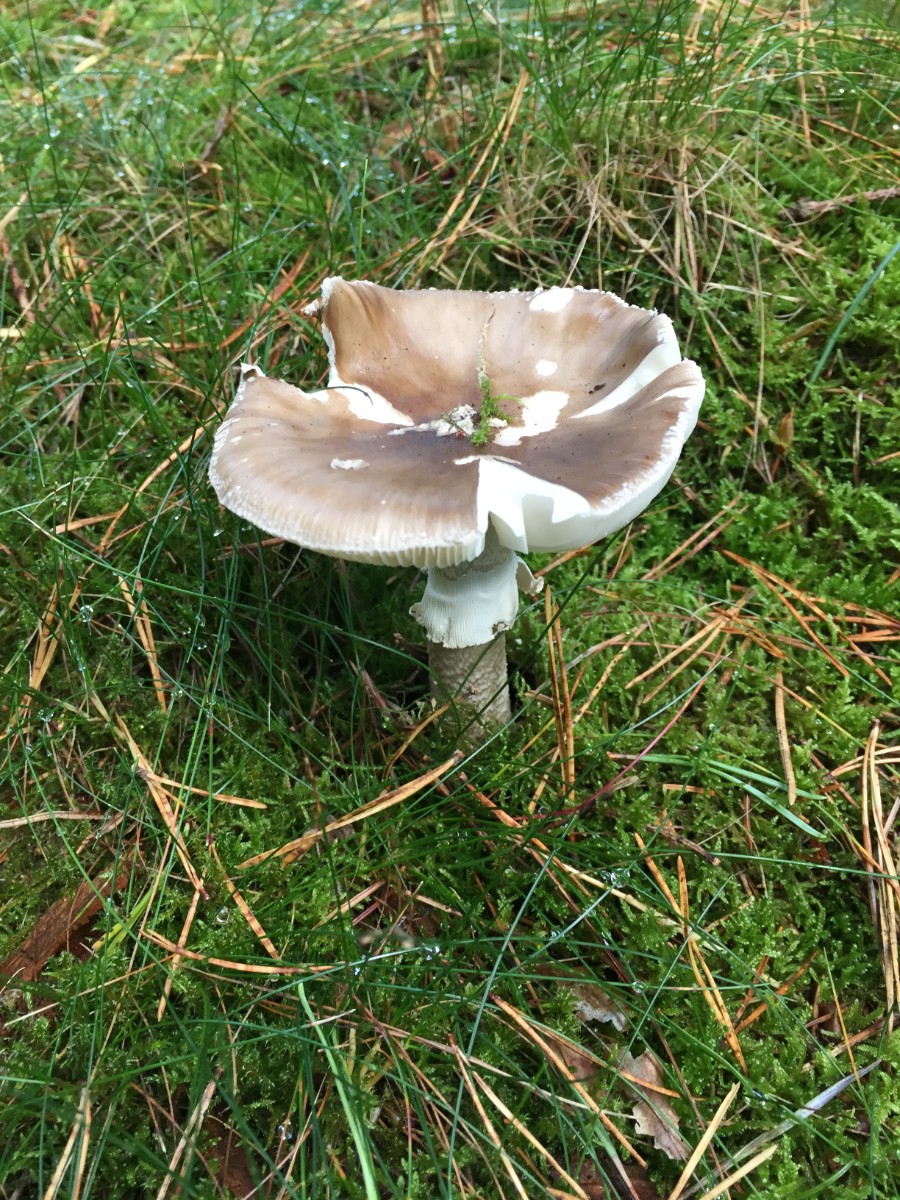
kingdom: Fungi
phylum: Basidiomycota
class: Agaricomycetes
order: Agaricales
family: Amanitaceae
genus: Amanita
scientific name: Amanita
